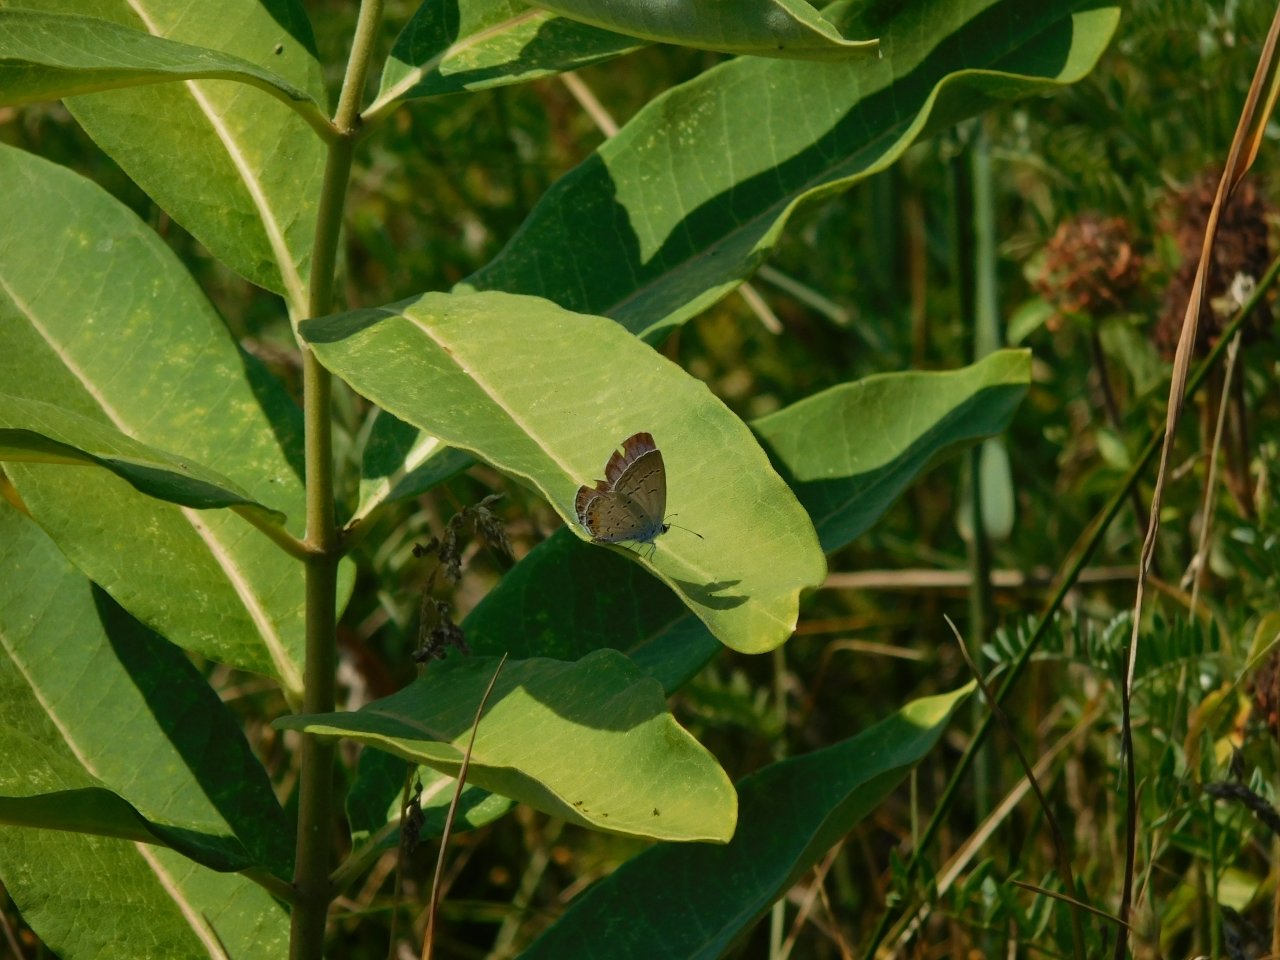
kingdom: Animalia
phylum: Arthropoda
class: Insecta
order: Lepidoptera
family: Lycaenidae
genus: Elkalyce
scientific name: Elkalyce comyntas
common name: Eastern Tailed-Blue
